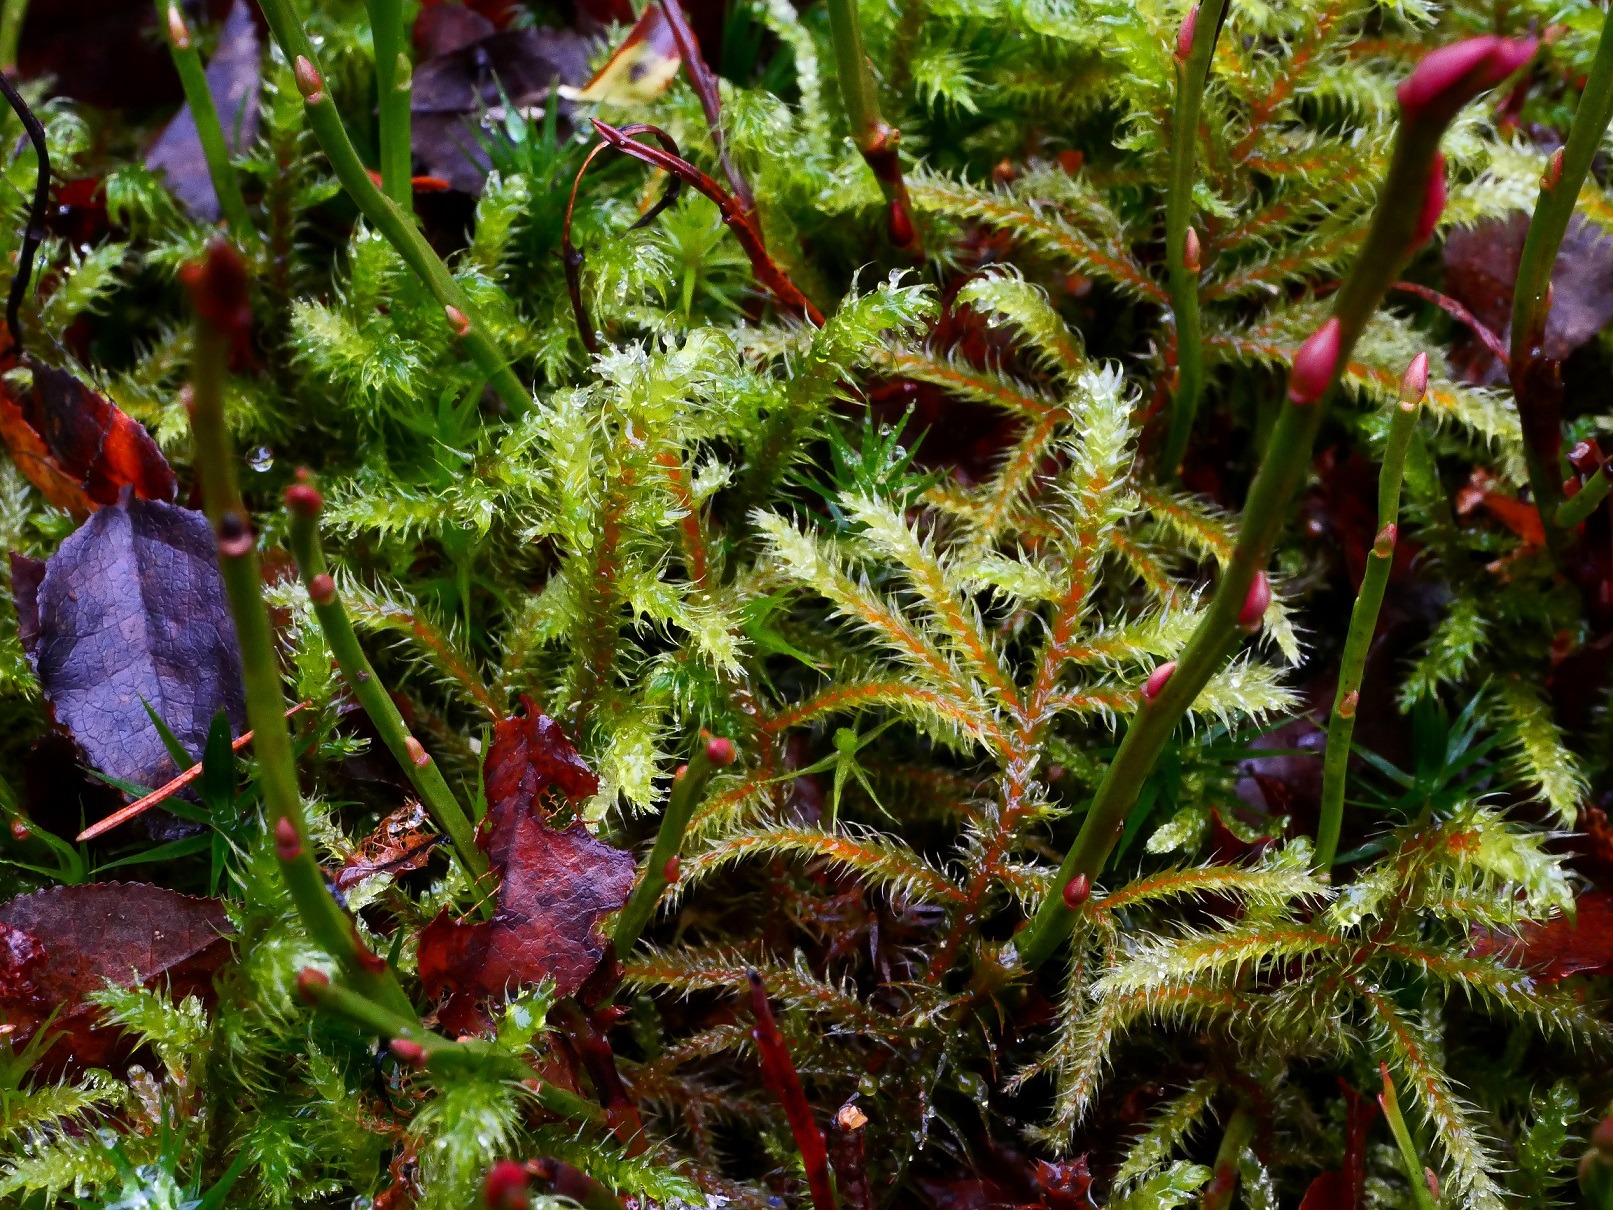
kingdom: Plantae
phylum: Bryophyta
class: Bryopsida
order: Hypnales
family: Hylocomiaceae
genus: Rhytidiadelphus
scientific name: Rhytidiadelphus loreus
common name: Ulvefod-kransemos
